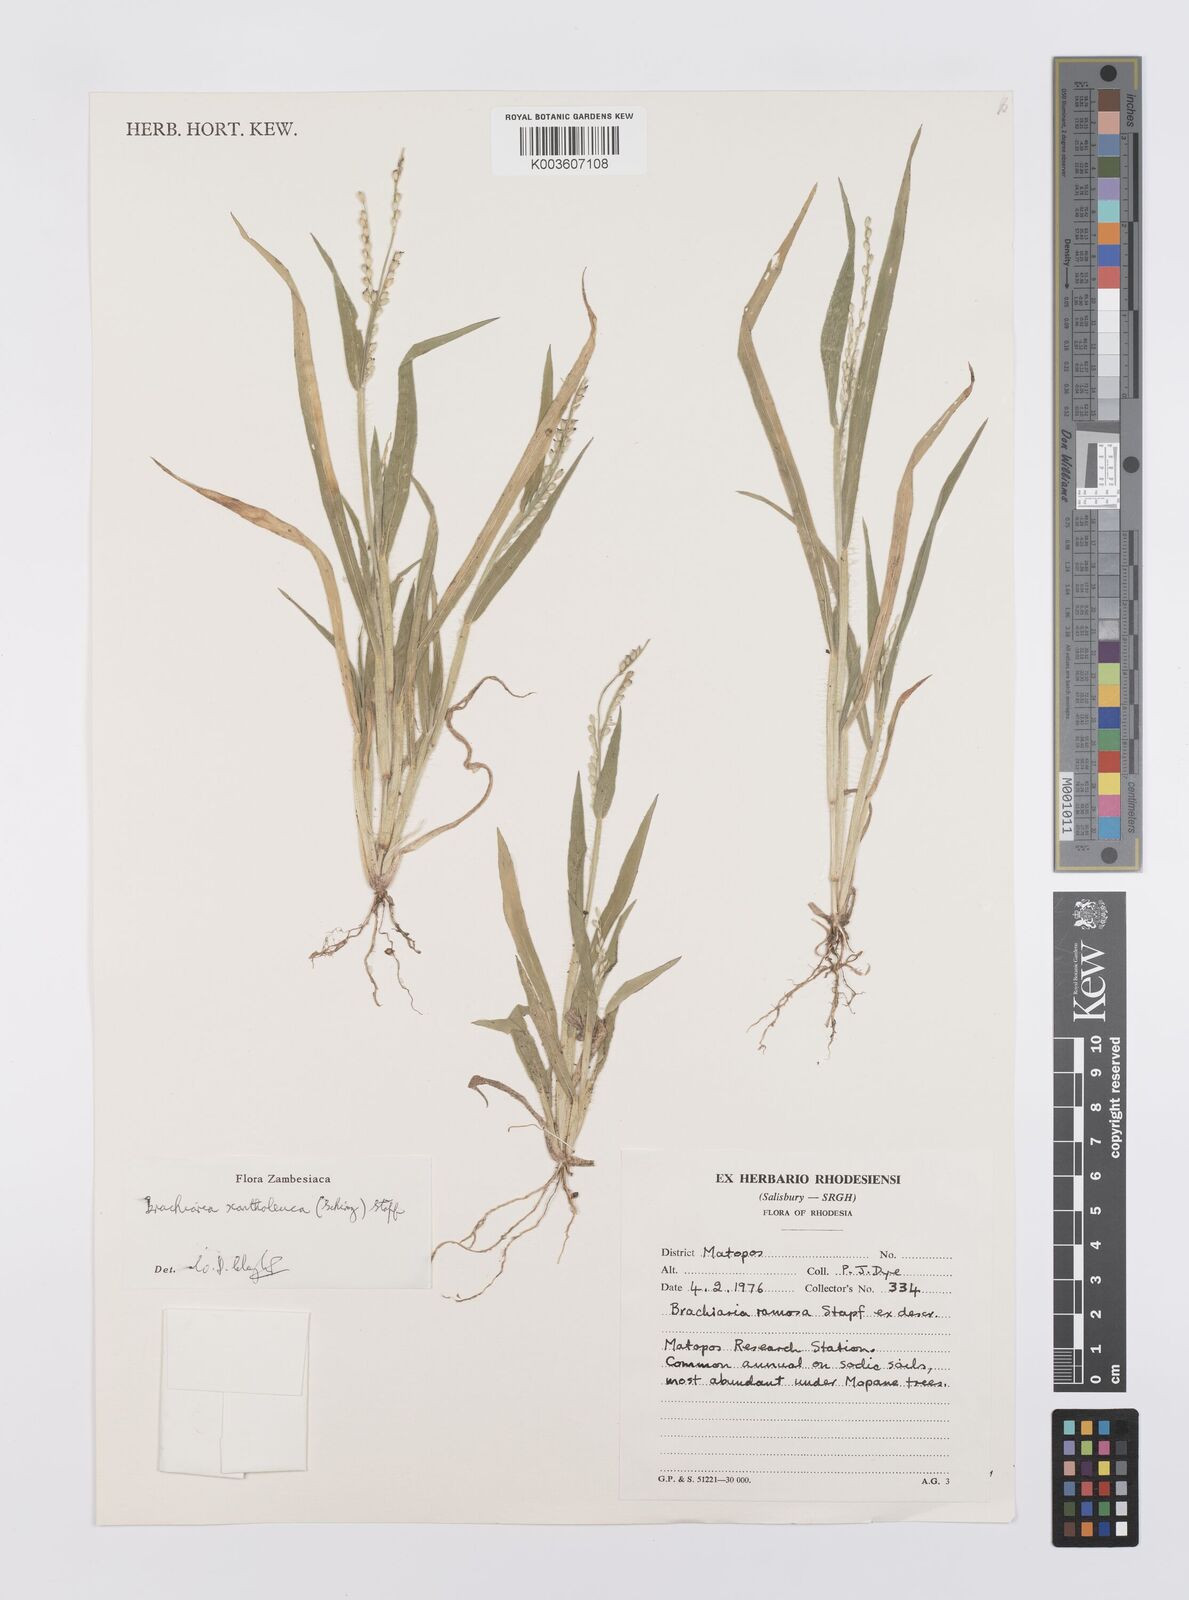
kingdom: Plantae
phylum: Tracheophyta
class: Liliopsida
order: Poales
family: Poaceae
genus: Urochloa
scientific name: Urochloa xantholeuca
